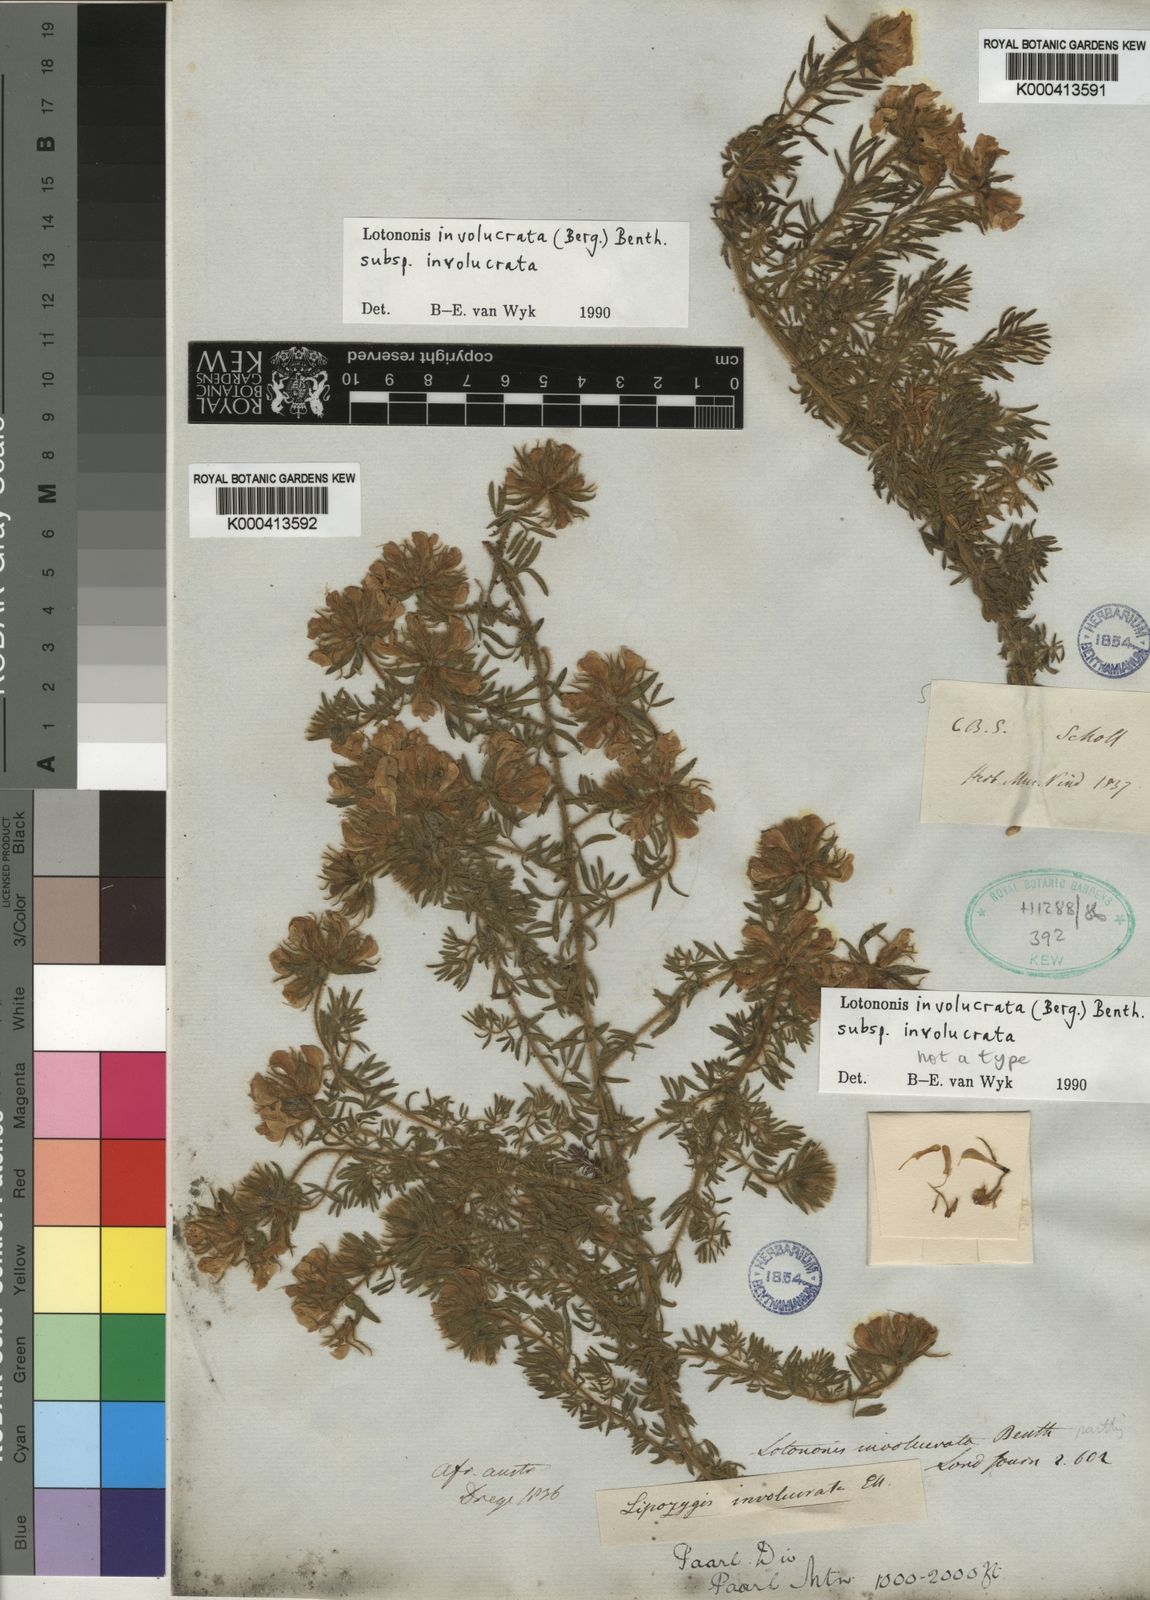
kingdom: Plantae
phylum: Tracheophyta
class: Magnoliopsida
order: Fabales
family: Fabaceae
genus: Lotononis
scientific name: Lotononis involucrata
